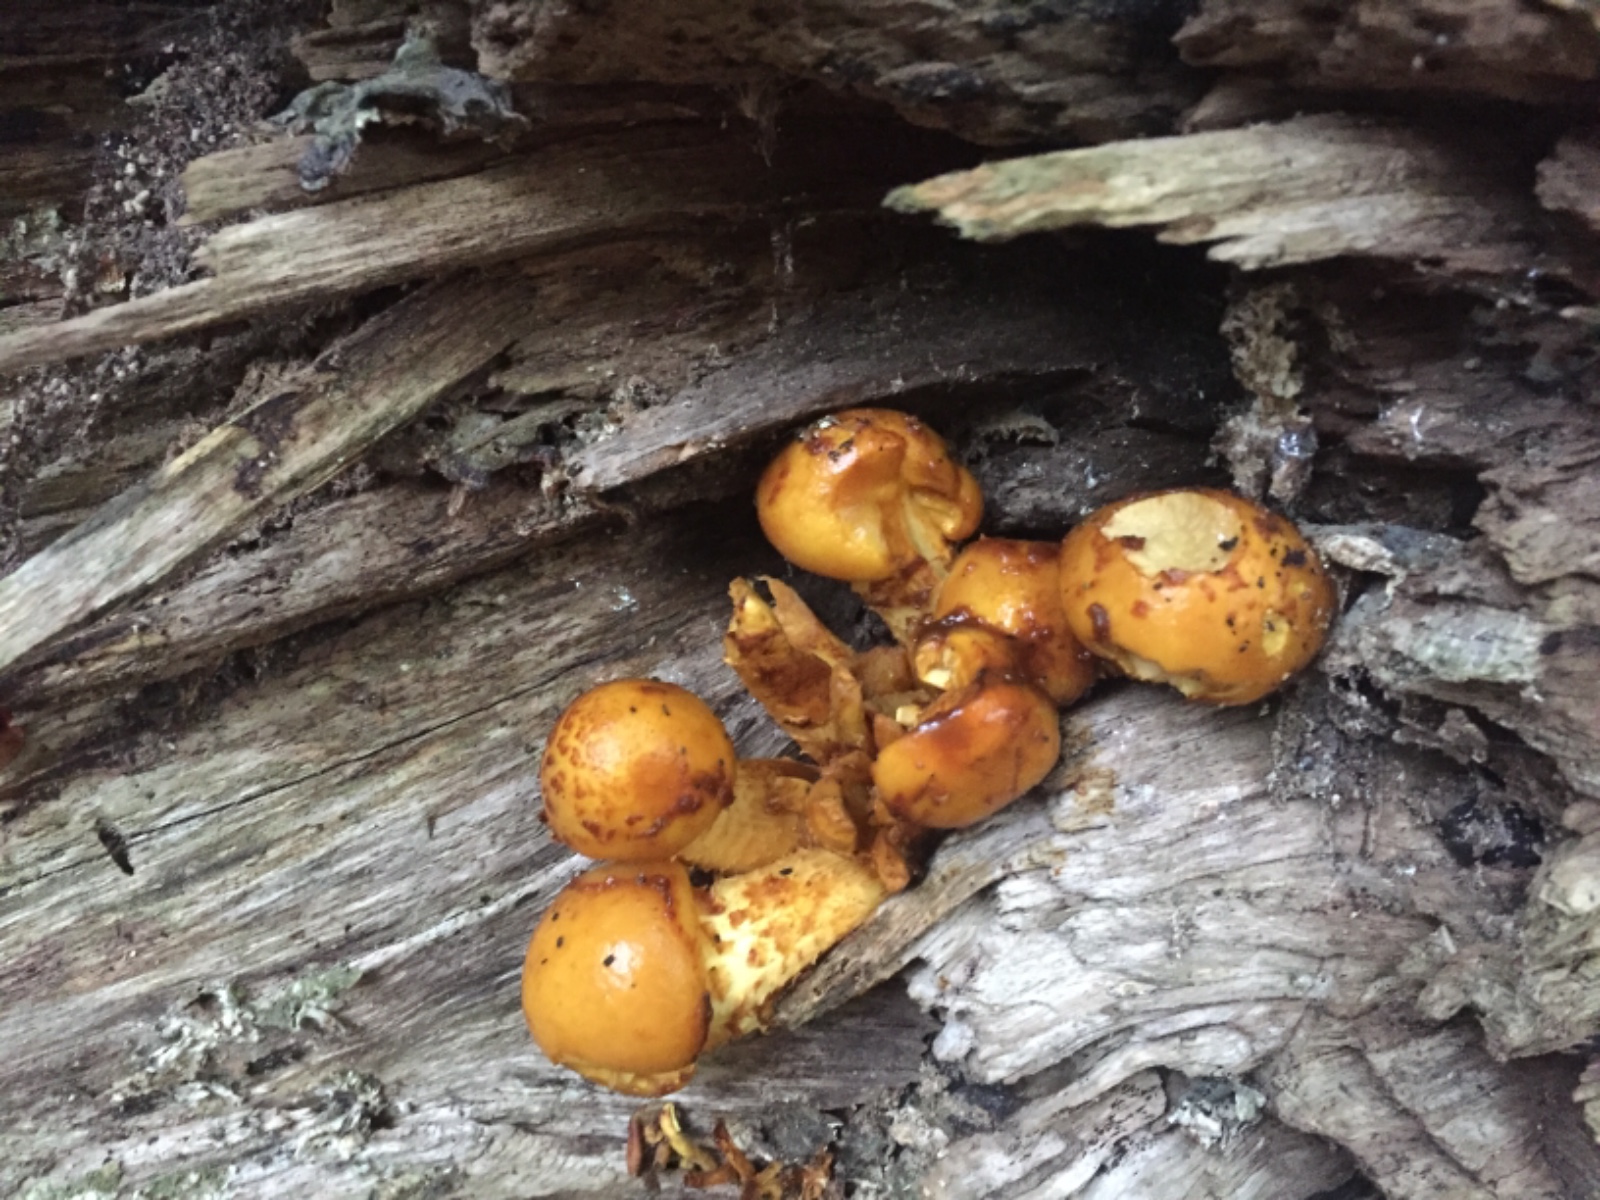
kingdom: Fungi
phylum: Basidiomycota
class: Agaricomycetes
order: Agaricales
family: Strophariaceae
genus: Pholiota
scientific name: Pholiota adiposa
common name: højtsiddende skælhat
